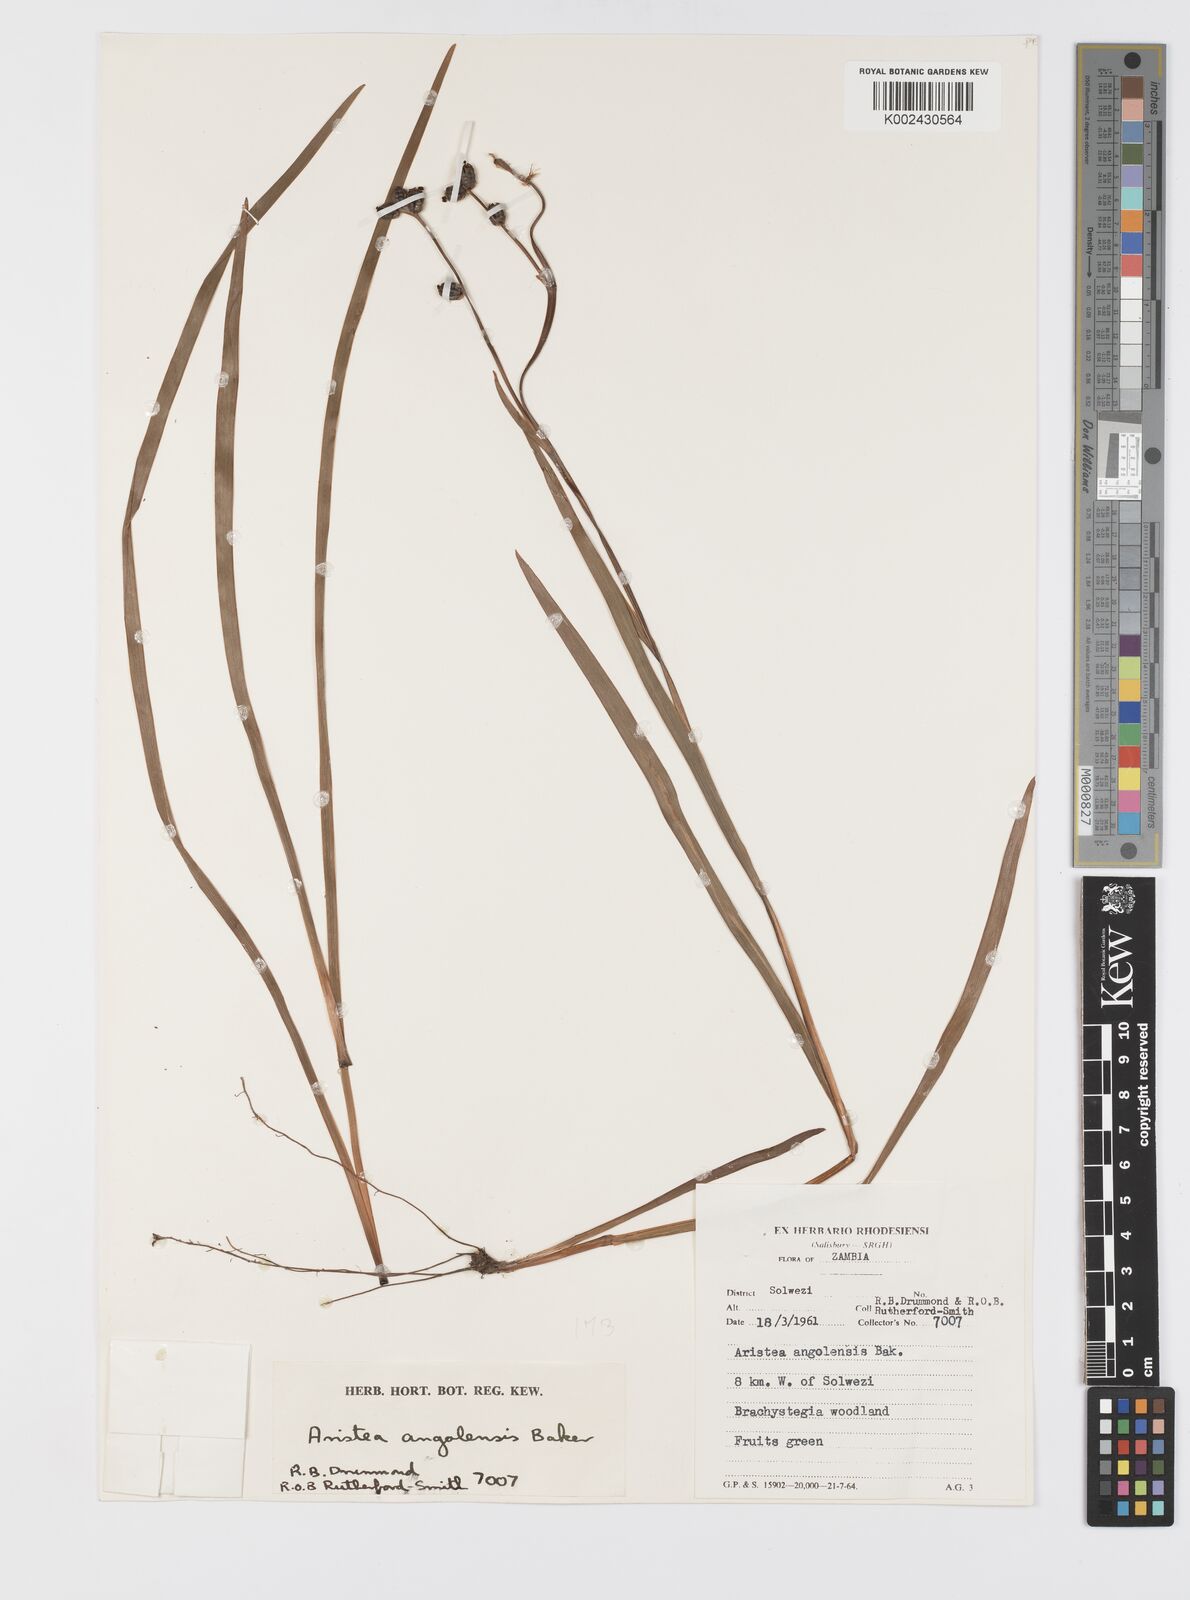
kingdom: Plantae
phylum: Tracheophyta
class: Liliopsida
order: Asparagales
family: Iridaceae
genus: Aristea
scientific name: Aristea angolensis
